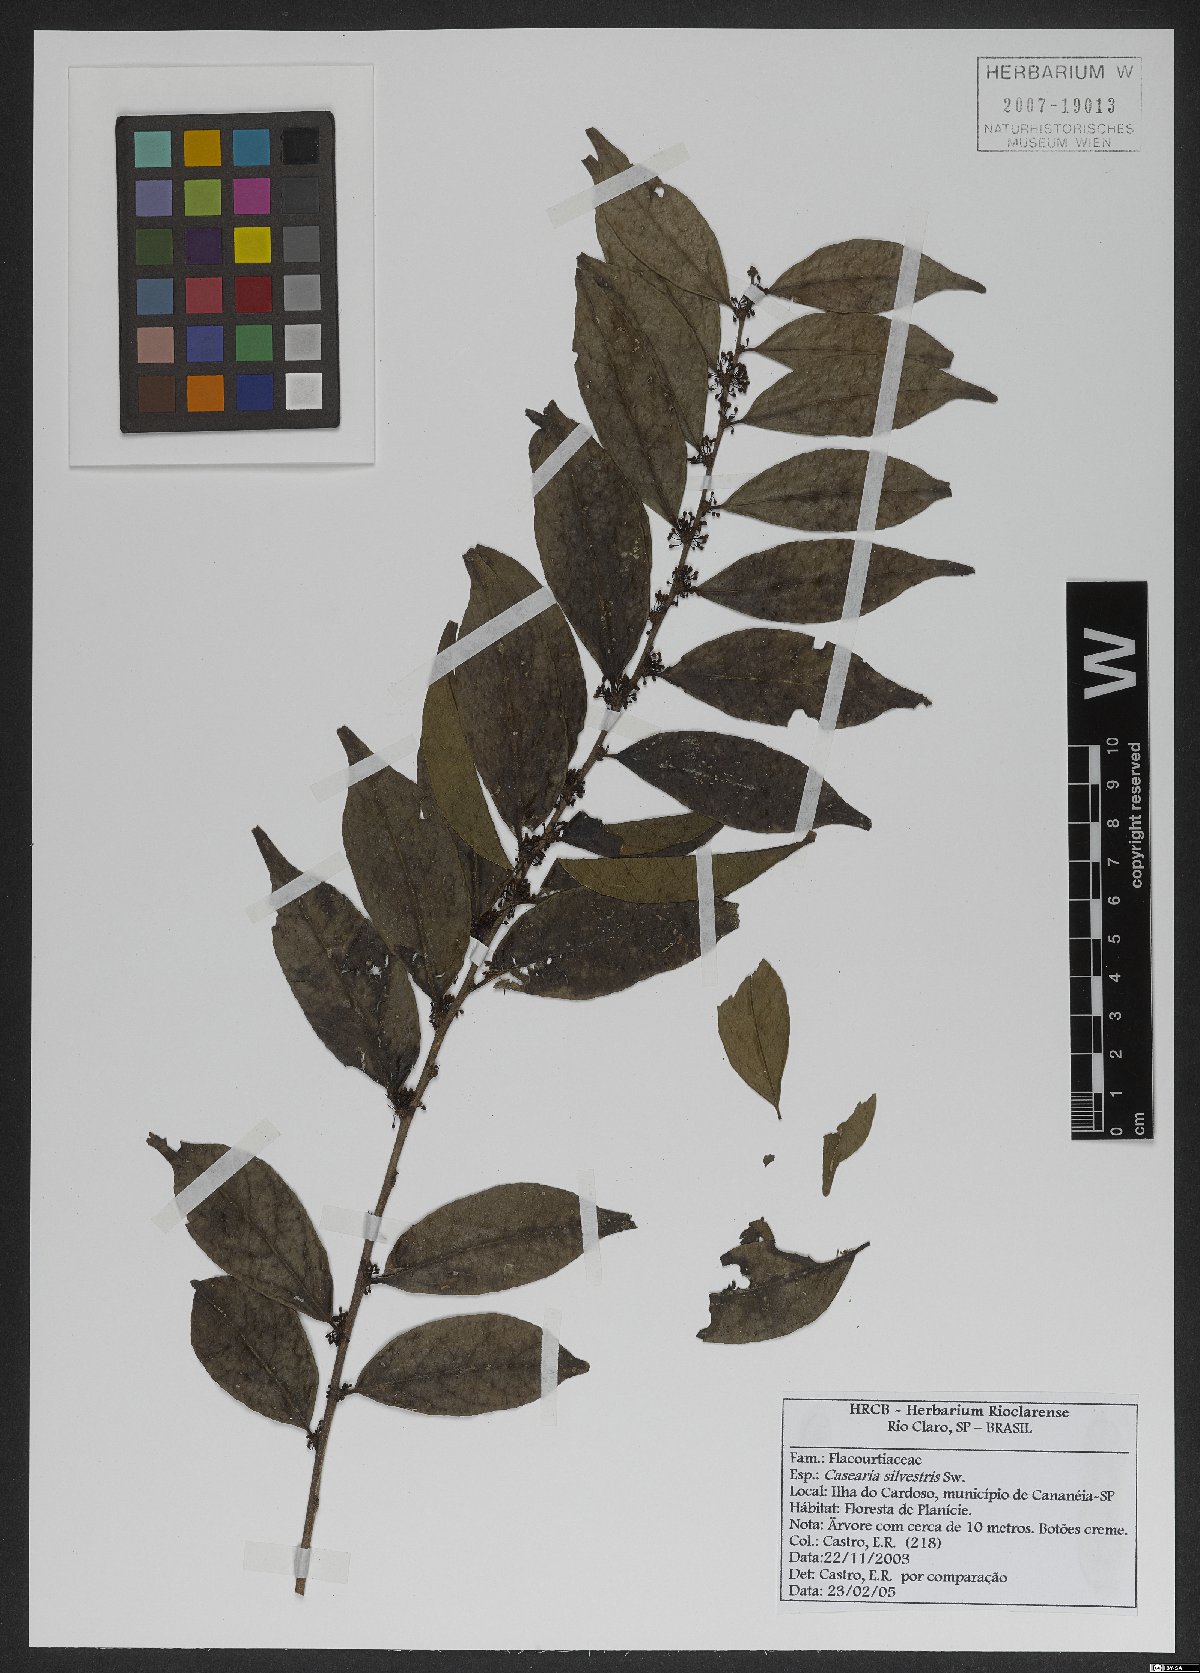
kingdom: Plantae
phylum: Tracheophyta
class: Magnoliopsida
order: Malpighiales
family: Salicaceae
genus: Casearia
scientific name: Casearia sylvestris
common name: Wild sage
